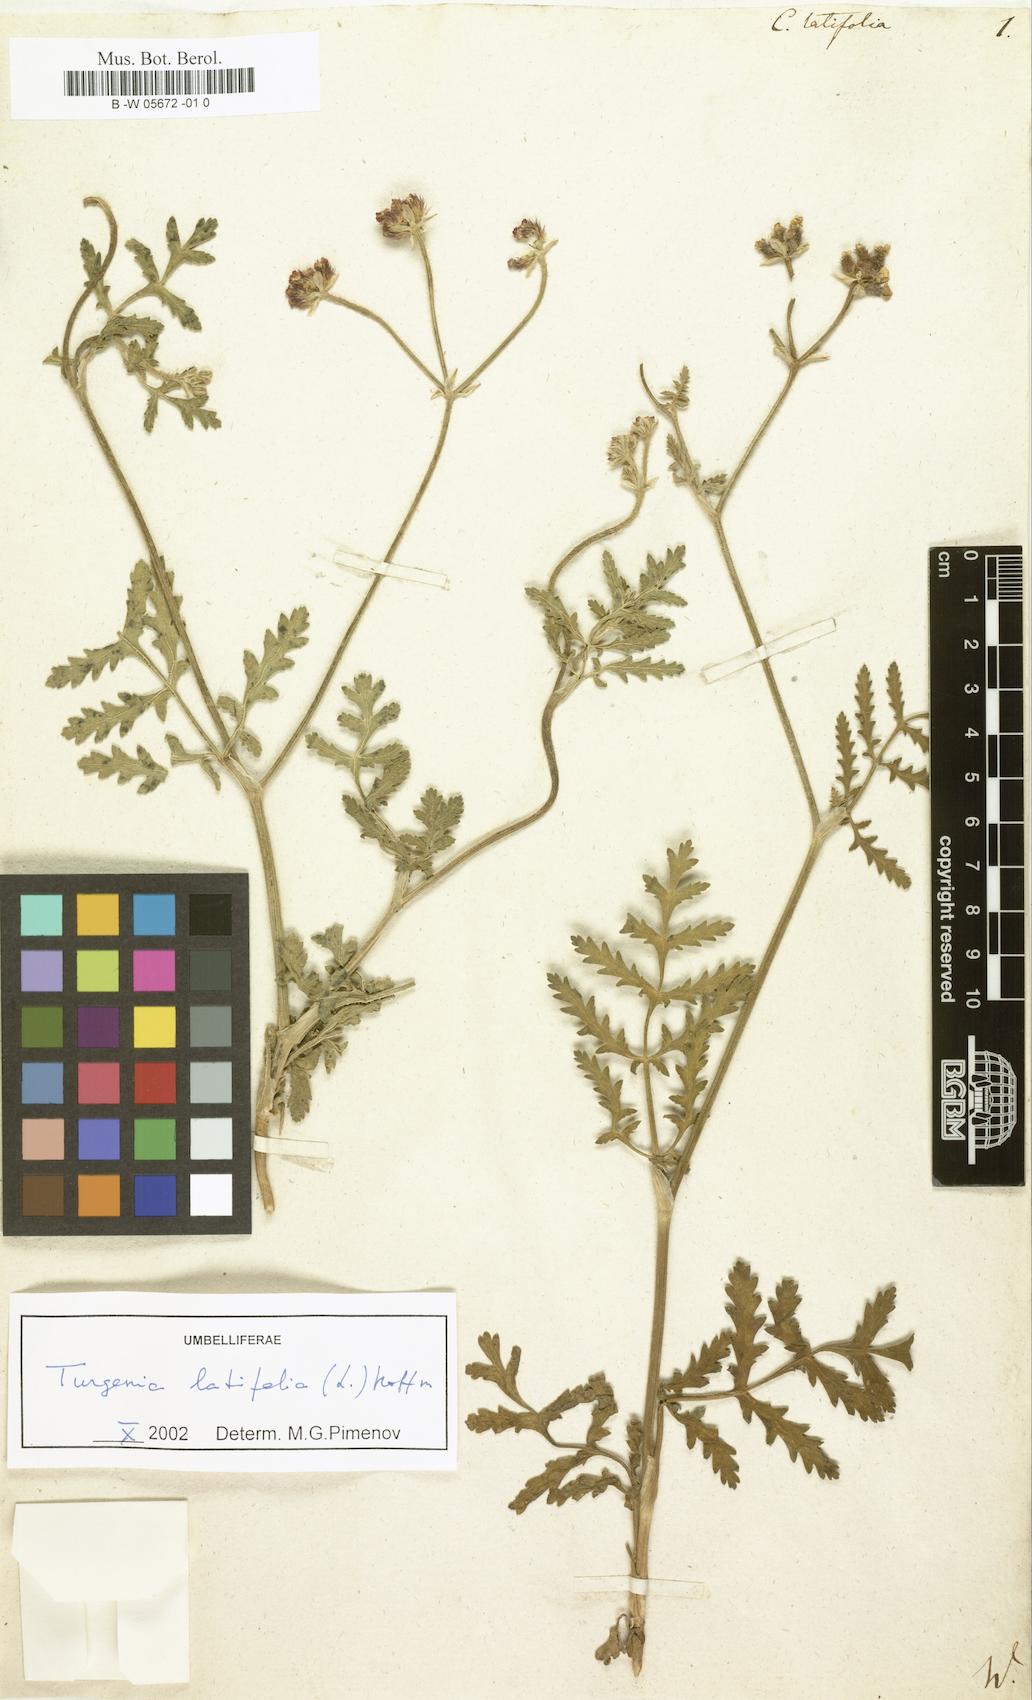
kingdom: Plantae
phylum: Tracheophyta
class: Magnoliopsida
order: Apiales
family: Apiaceae
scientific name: Apiaceae
